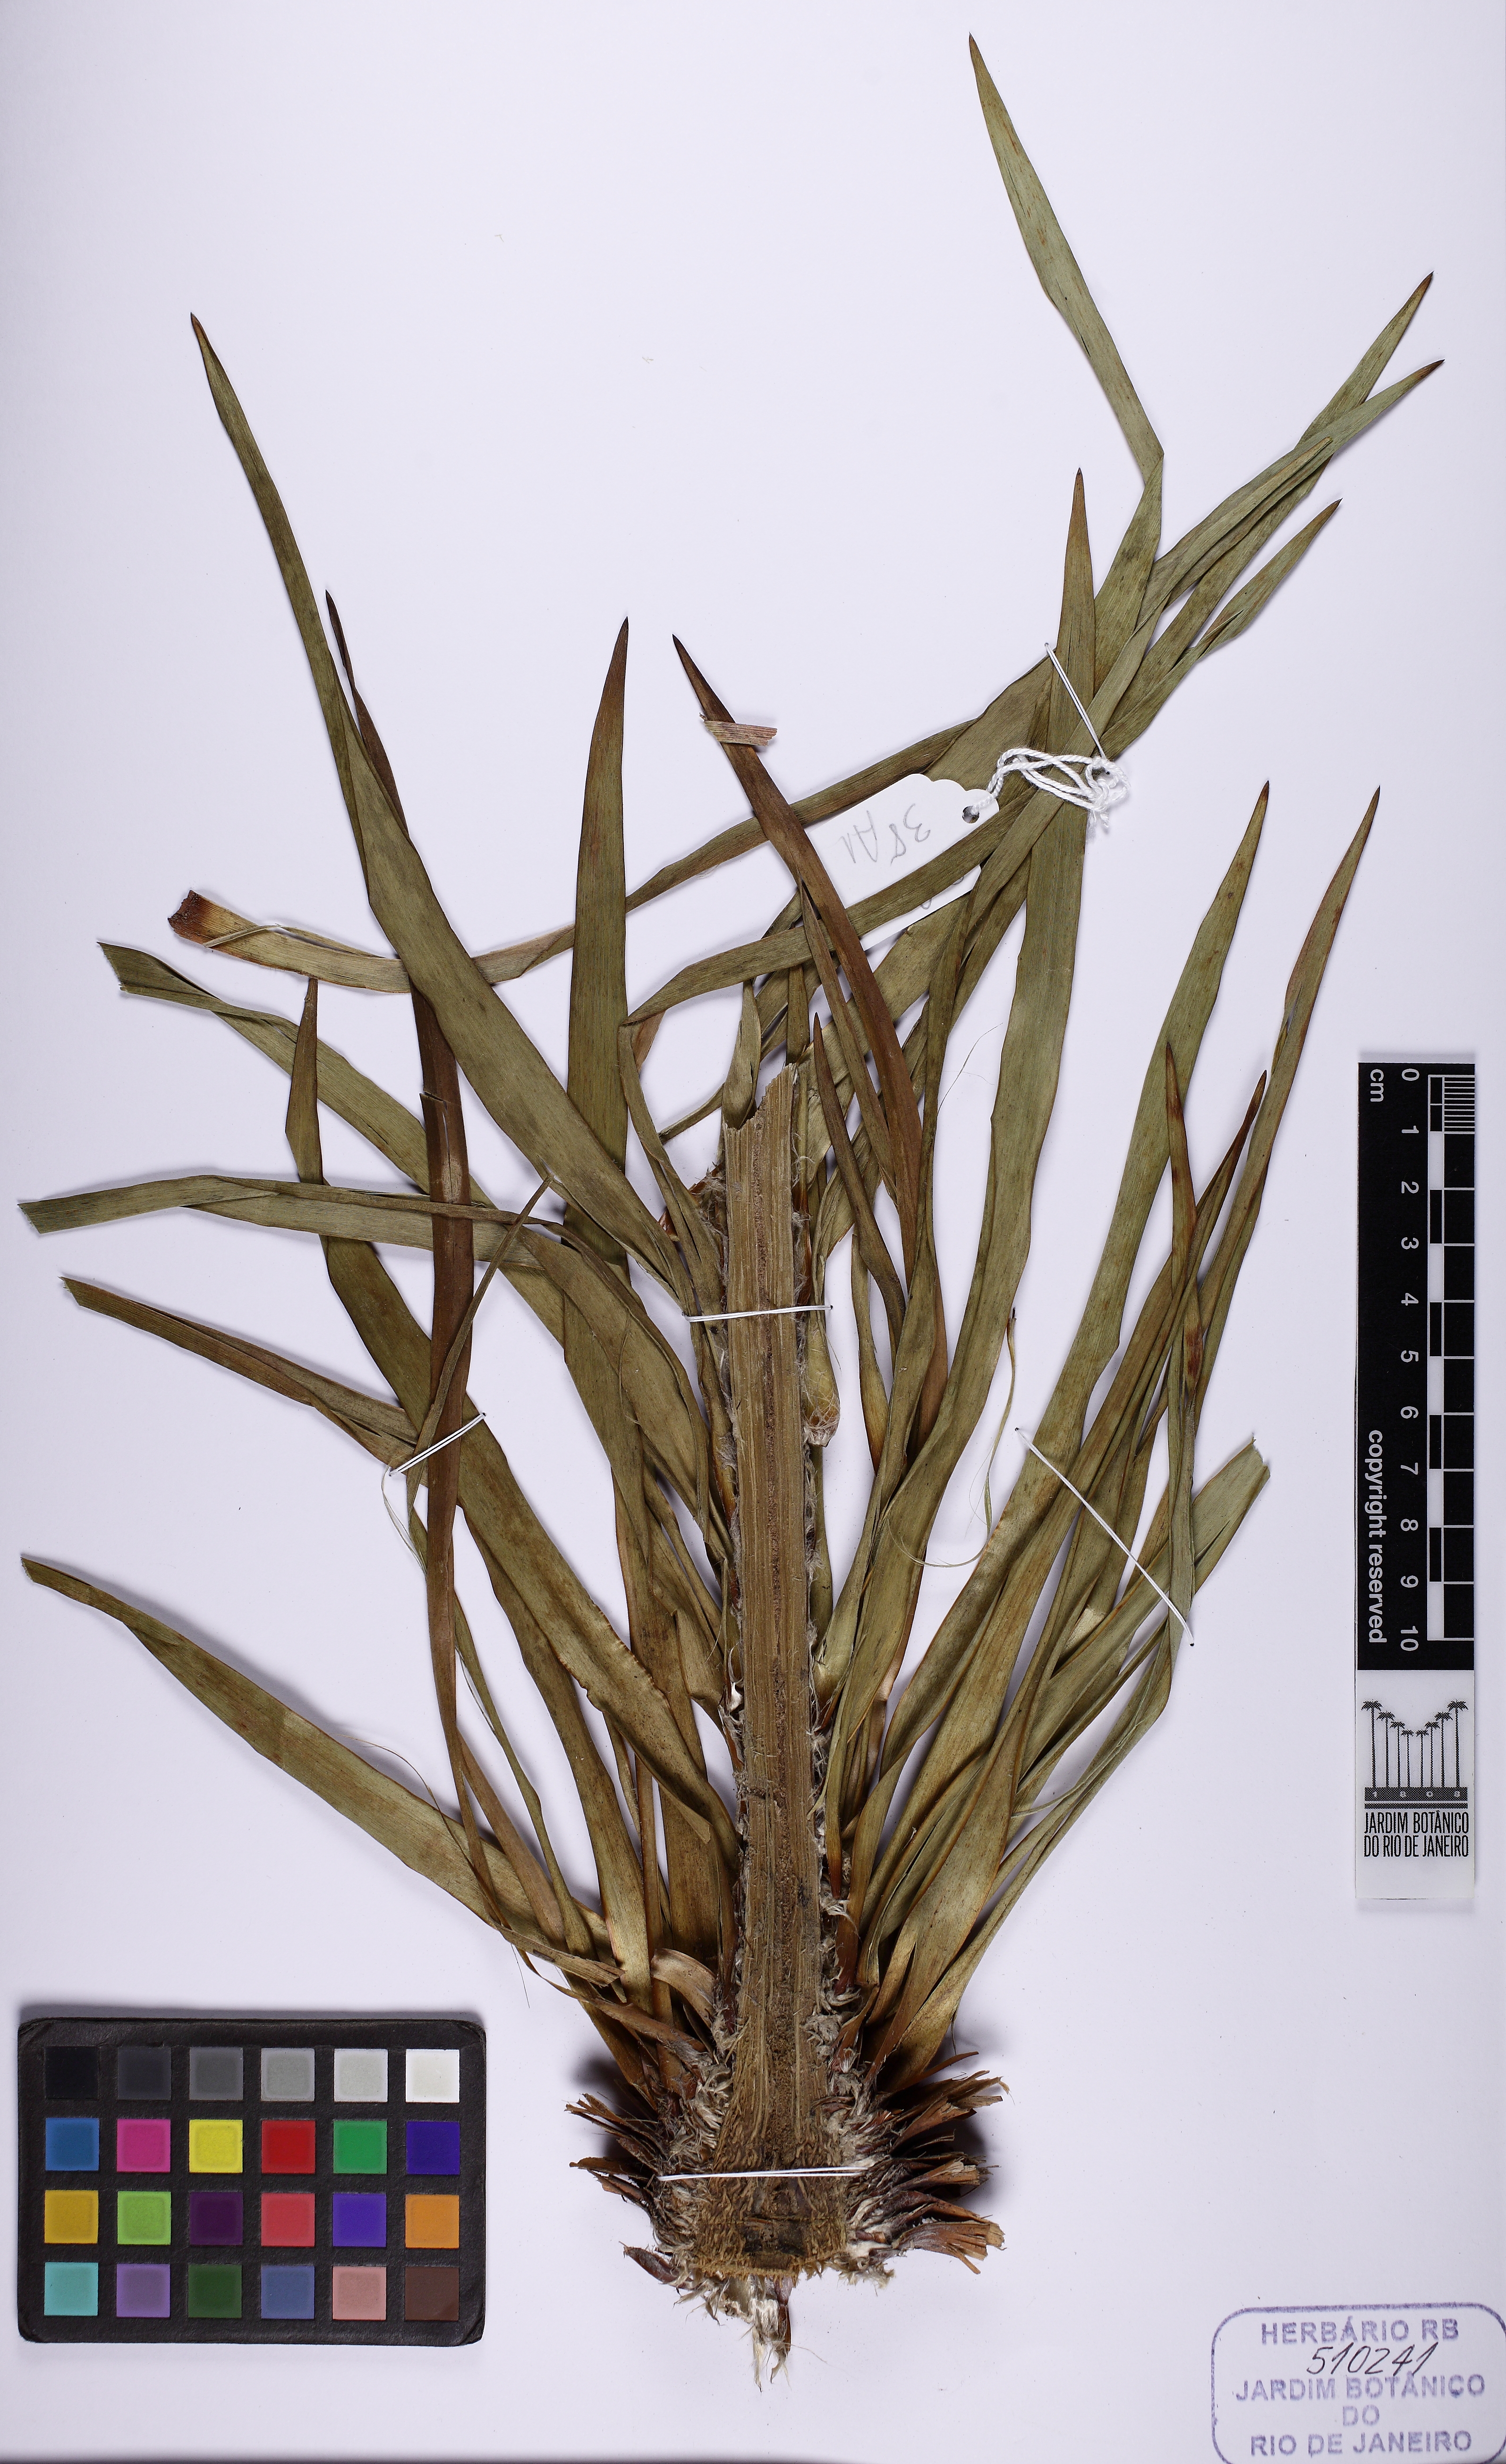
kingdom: Plantae
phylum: Tracheophyta
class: Liliopsida
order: Poales
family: Eriocaulaceae
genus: Paepalanthus
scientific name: Paepalanthus chiquitensis
